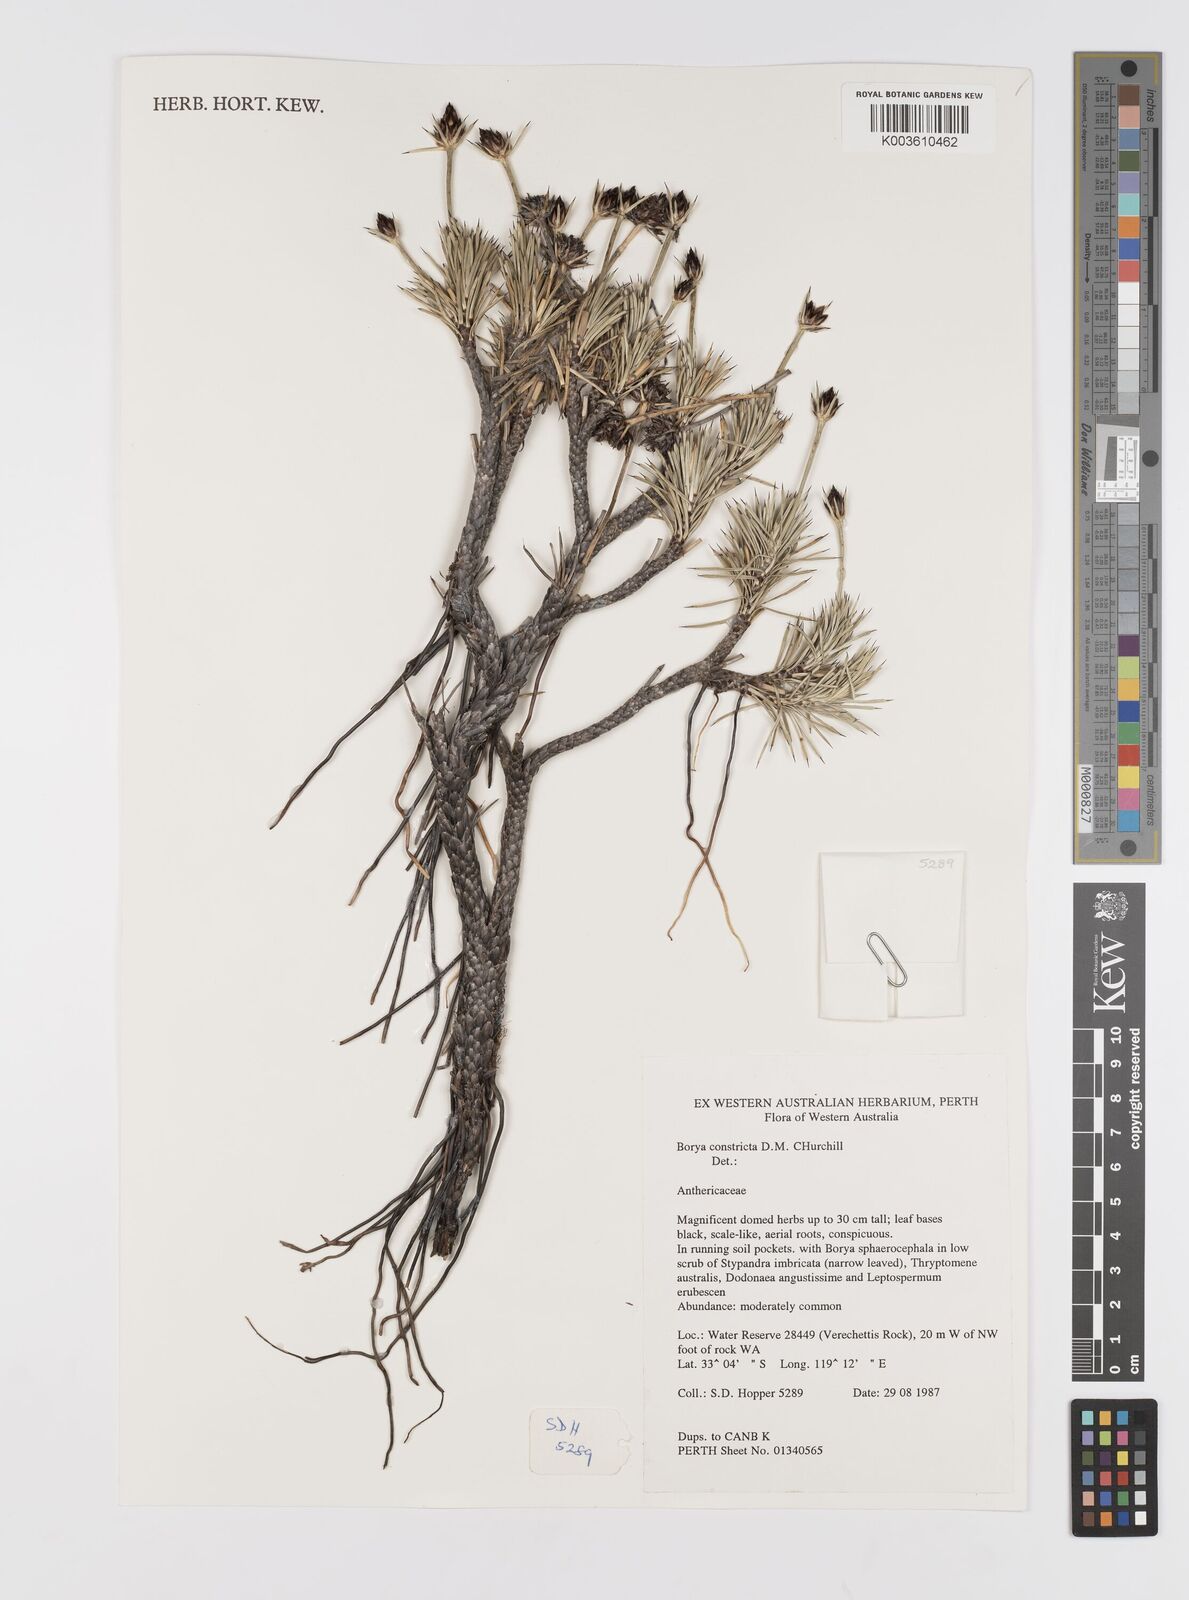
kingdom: Plantae
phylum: Tracheophyta
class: Liliopsida
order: Asparagales
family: Boryaceae
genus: Borya
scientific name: Borya constricta
